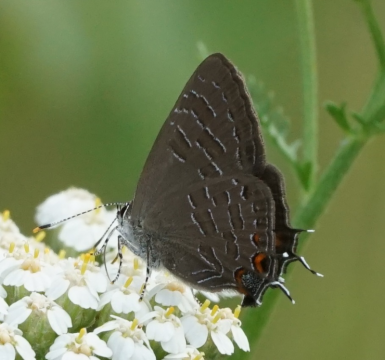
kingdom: Animalia
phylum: Arthropoda
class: Insecta
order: Lepidoptera
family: Lycaenidae
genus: Satyrium
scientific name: Satyrium liparops
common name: Striped Hairstreak
